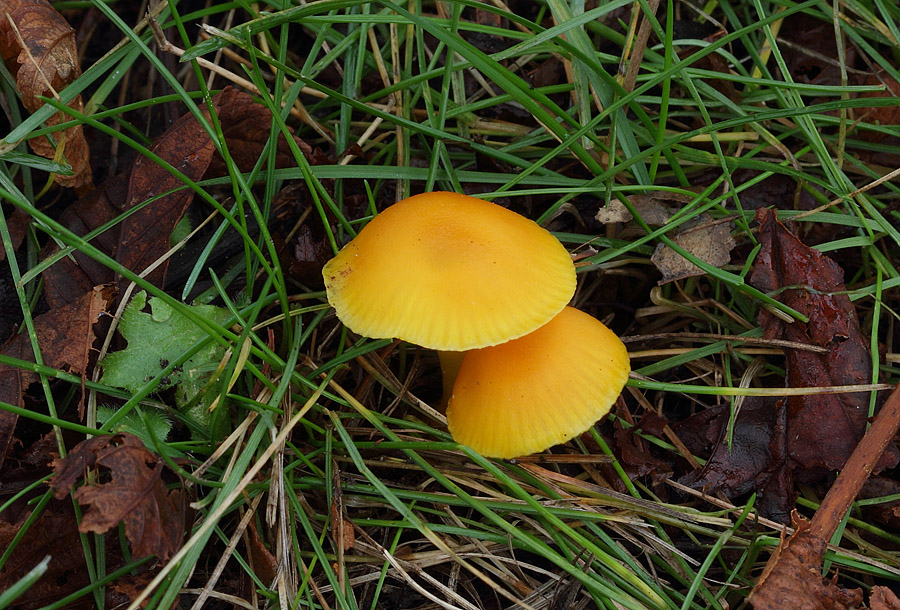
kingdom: Fungi
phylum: Basidiomycota
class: Agaricomycetes
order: Agaricales
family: Hygrophoraceae
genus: Hygrocybe
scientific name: Hygrocybe ceracea
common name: voksgul vokshat
